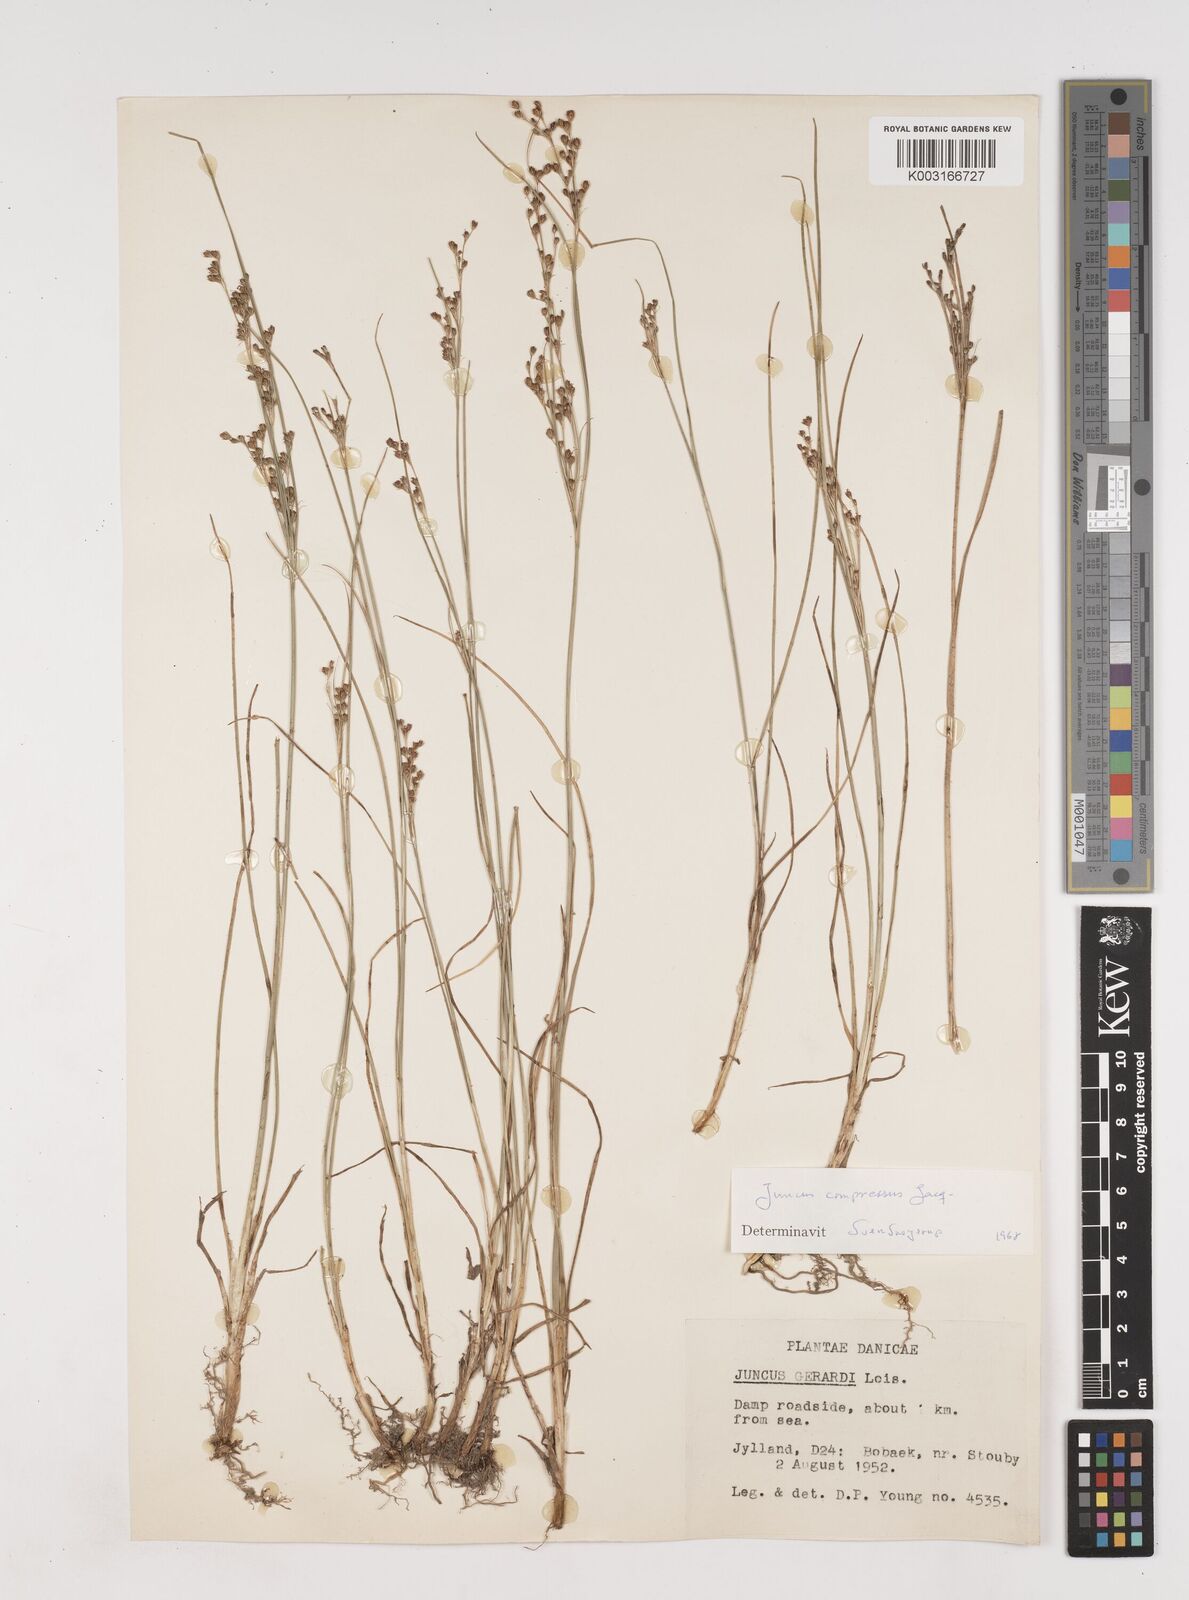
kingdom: Plantae
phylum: Tracheophyta
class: Liliopsida
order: Poales
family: Juncaceae
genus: Juncus
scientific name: Juncus
